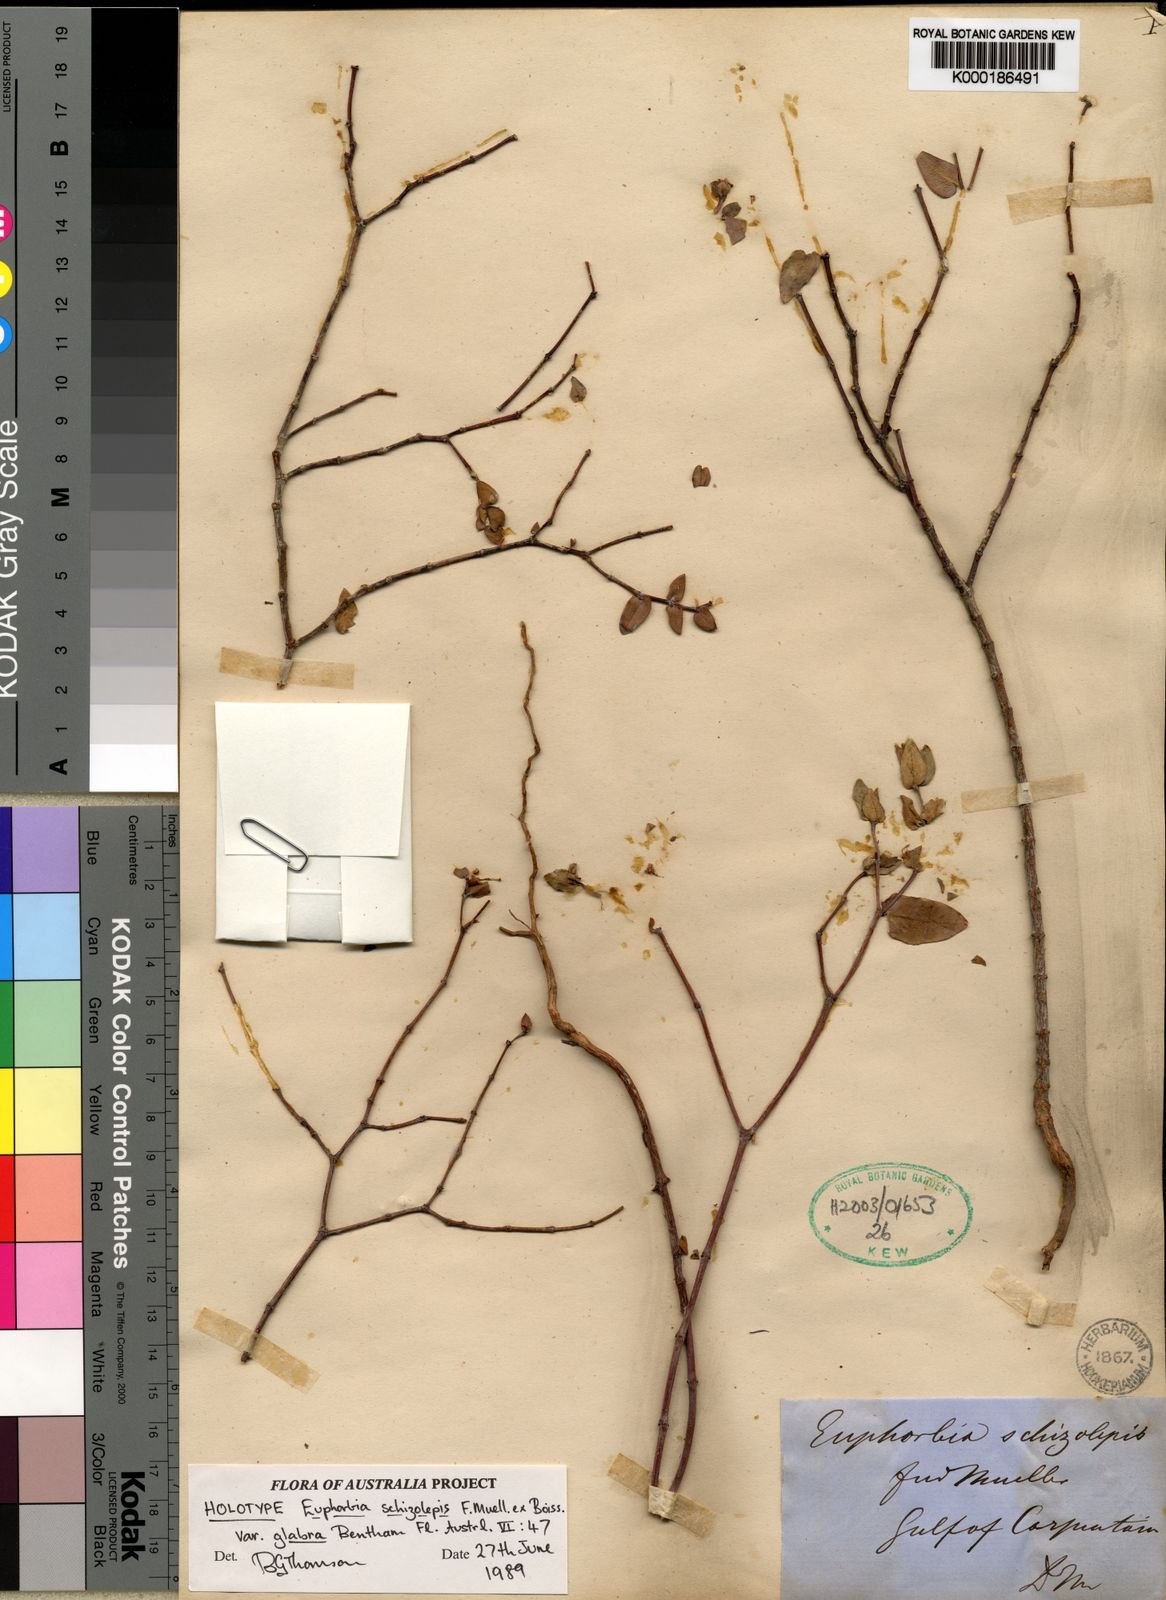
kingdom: Plantae
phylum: Tracheophyta
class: Magnoliopsida
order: Malpighiales
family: Euphorbiaceae
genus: Euphorbia
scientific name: Euphorbia carissoides
